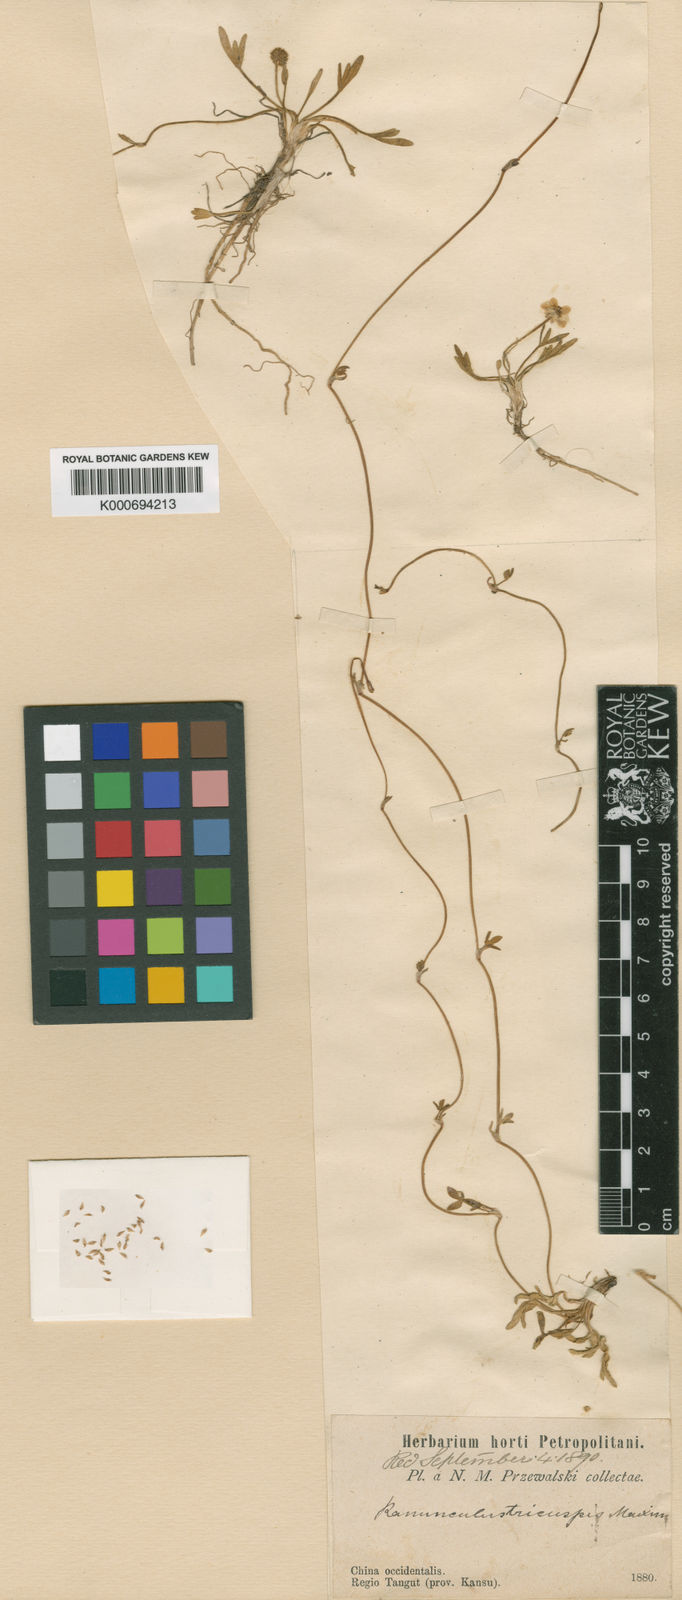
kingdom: Plantae
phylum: Tracheophyta
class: Magnoliopsida
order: Ranunculales
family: Ranunculaceae
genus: Halerpestes
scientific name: Halerpestes tricuspis
